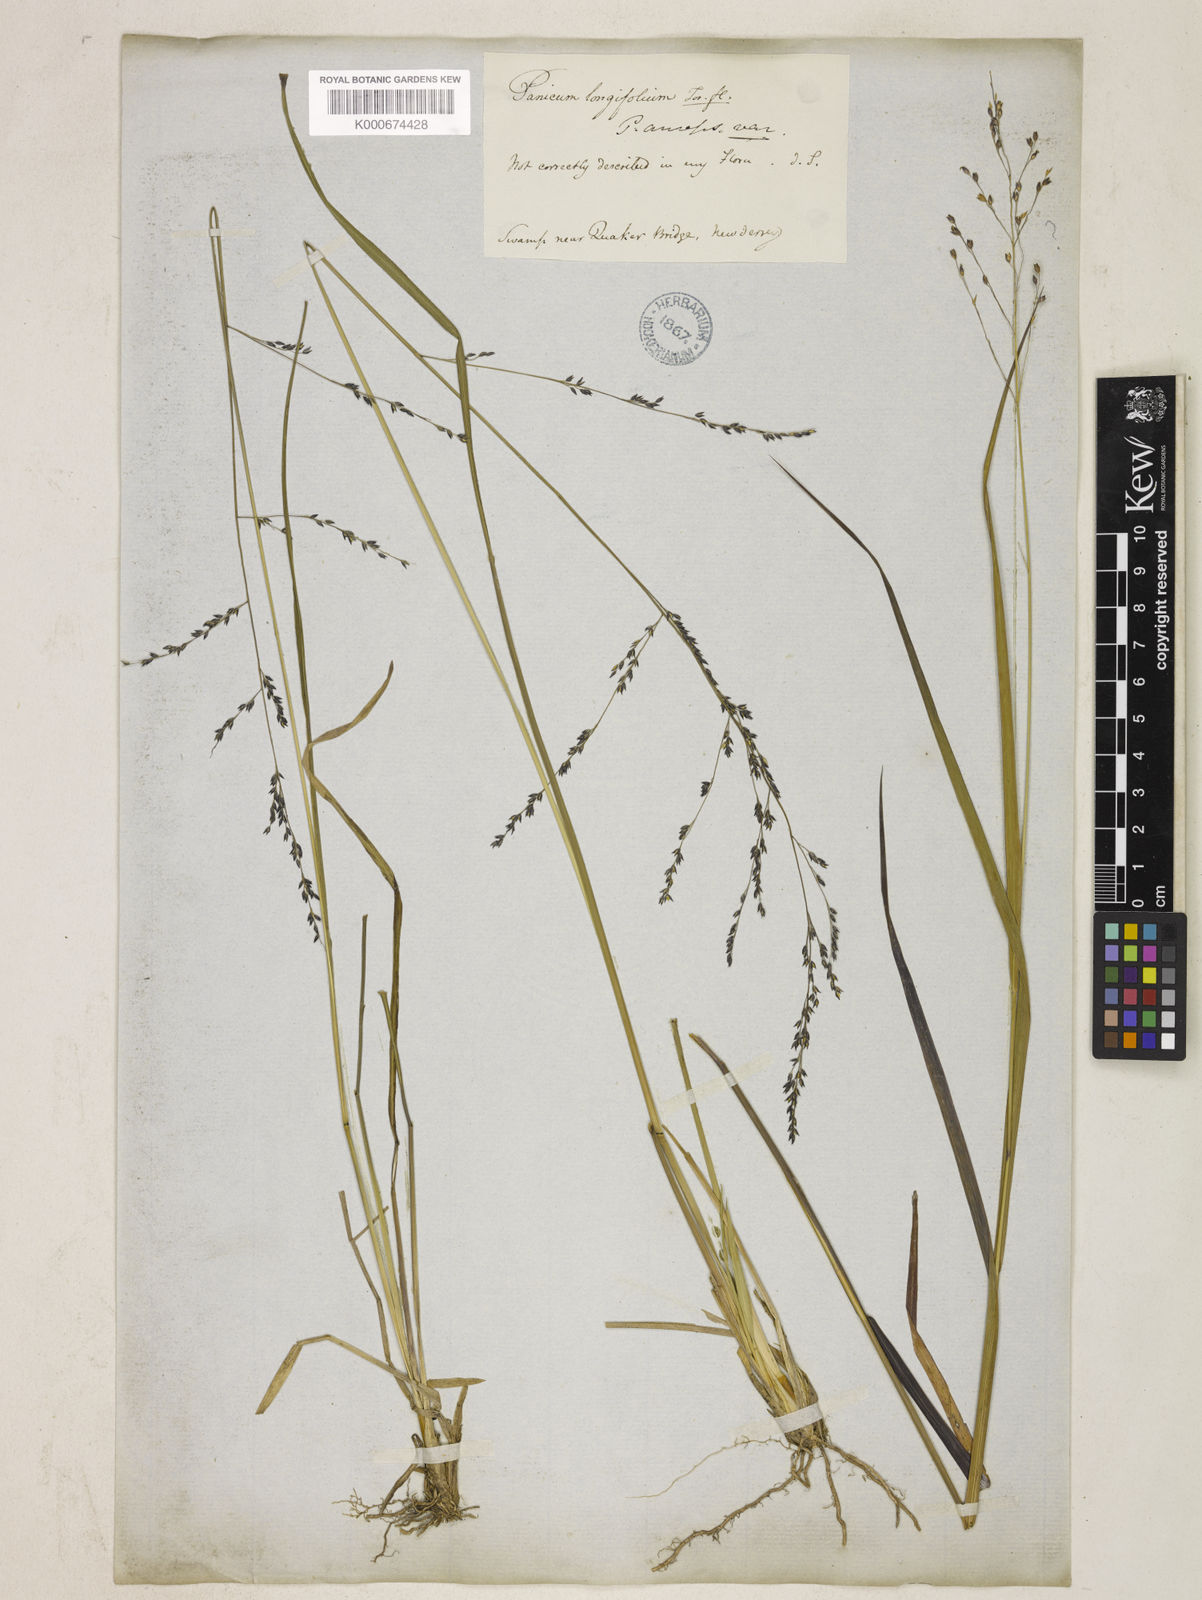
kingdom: Plantae
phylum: Tracheophyta
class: Liliopsida
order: Poales
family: Poaceae
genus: Coleataenia
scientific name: Coleataenia longifolia
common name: Long-leaved panicgrass
